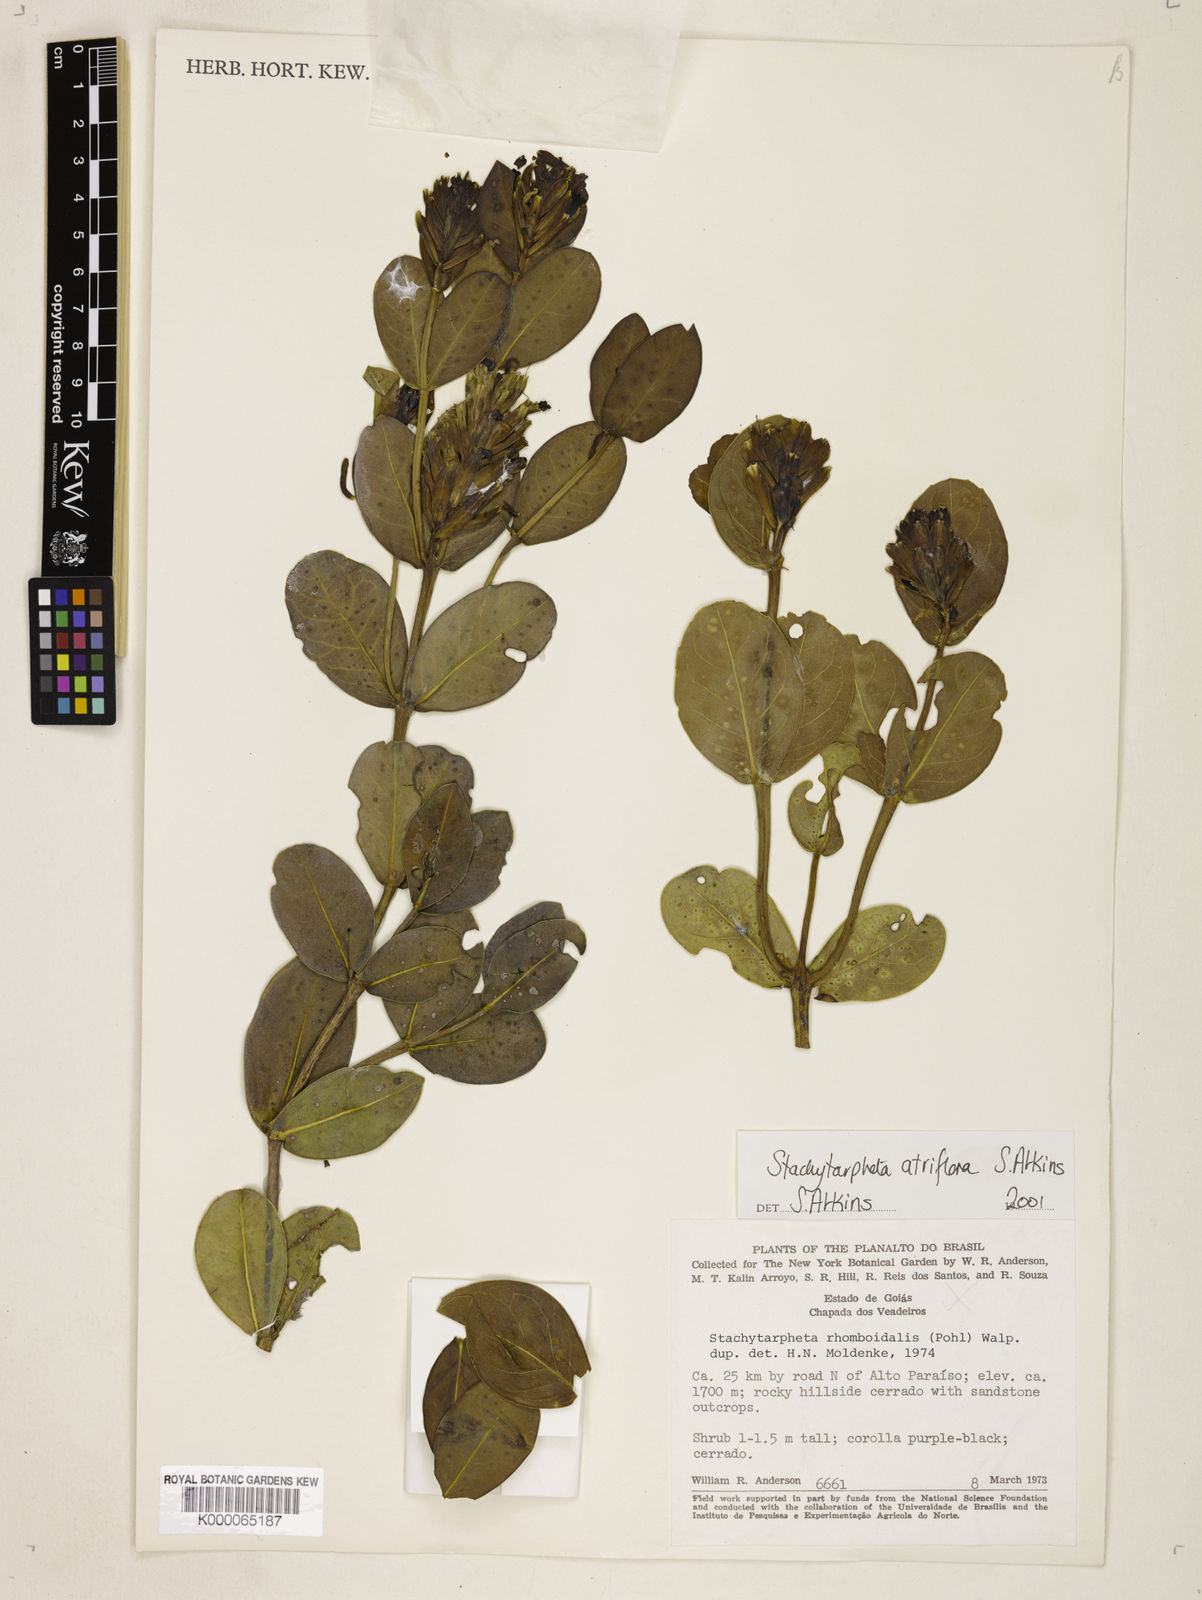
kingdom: Plantae
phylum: Tracheophyta
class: Magnoliopsida
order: Lamiales
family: Verbenaceae
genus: Stachytarpheta
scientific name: Stachytarpheta glauca
